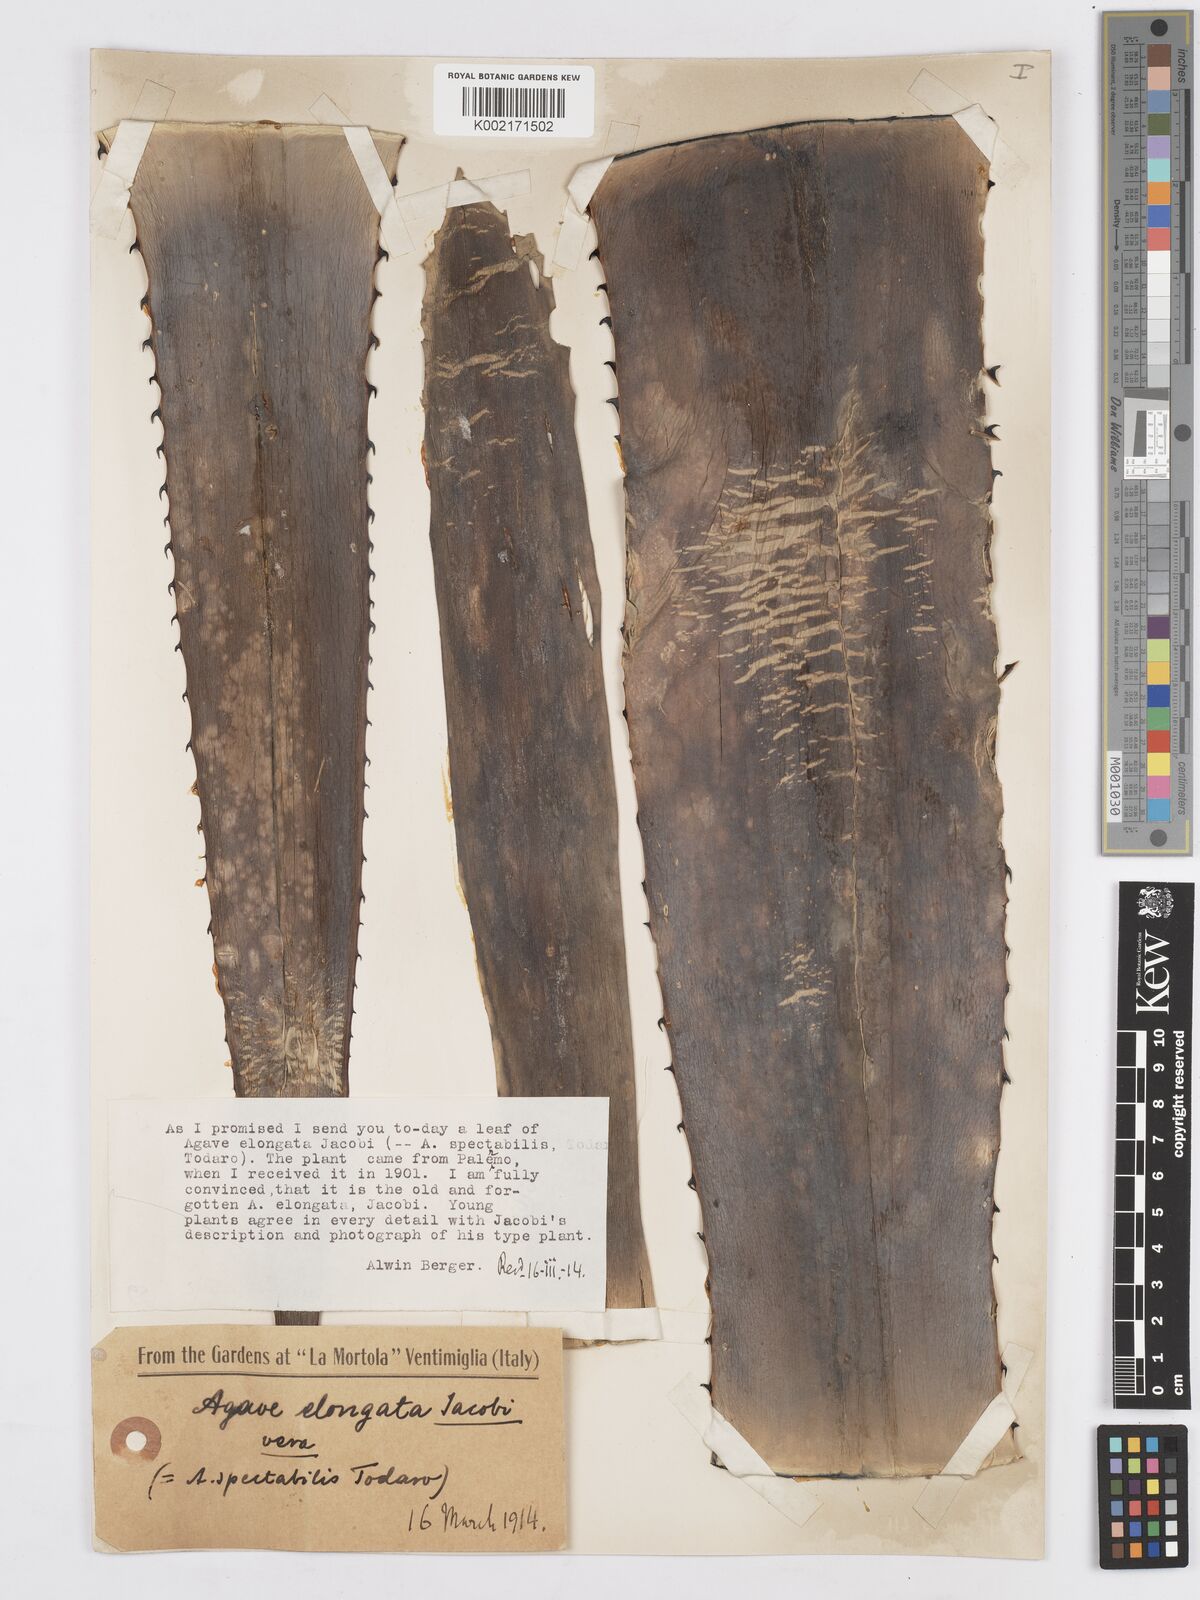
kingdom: Plantae
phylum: Tracheophyta
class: Liliopsida
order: Asparagales
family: Asparagaceae
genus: Agave
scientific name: Agave angustifolia
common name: Mescal agave
